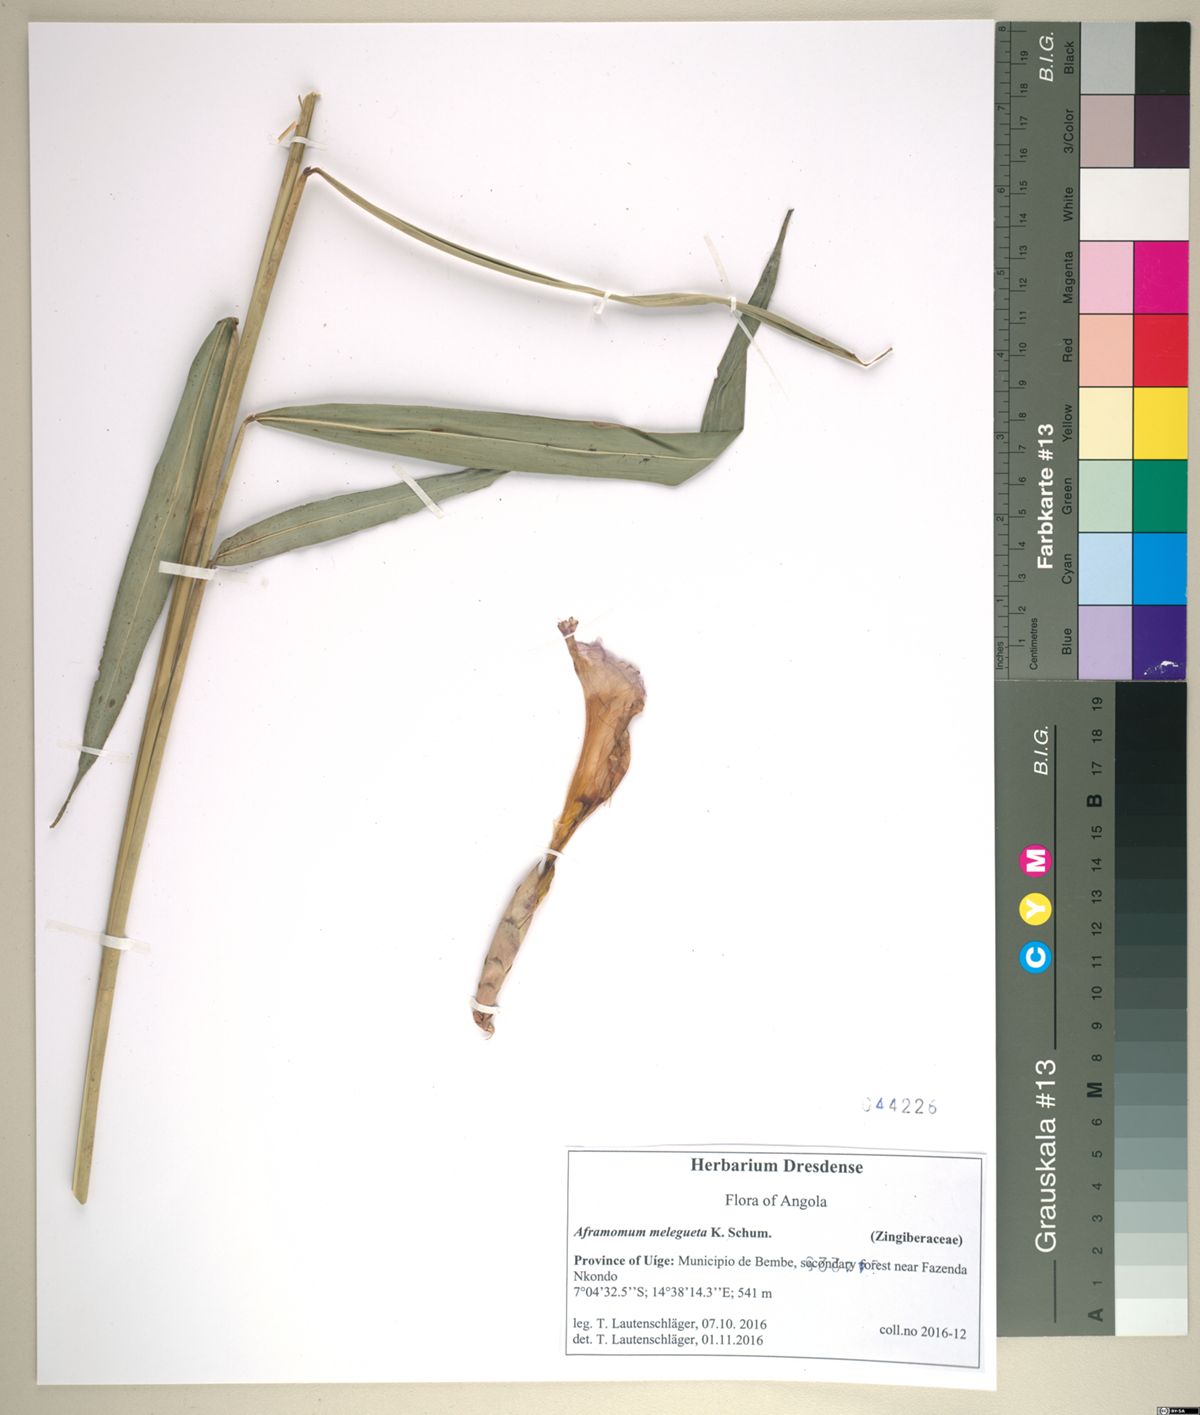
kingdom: Plantae
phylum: Tracheophyta
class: Liliopsida
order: Zingiberales
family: Zingiberaceae
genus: Aframomum
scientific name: Aframomum melegueta
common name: Grains of paradise
